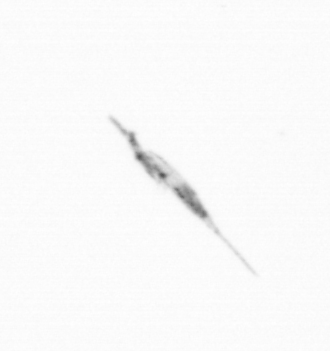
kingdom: Animalia
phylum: Arthropoda
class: Copepoda
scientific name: Copepoda
